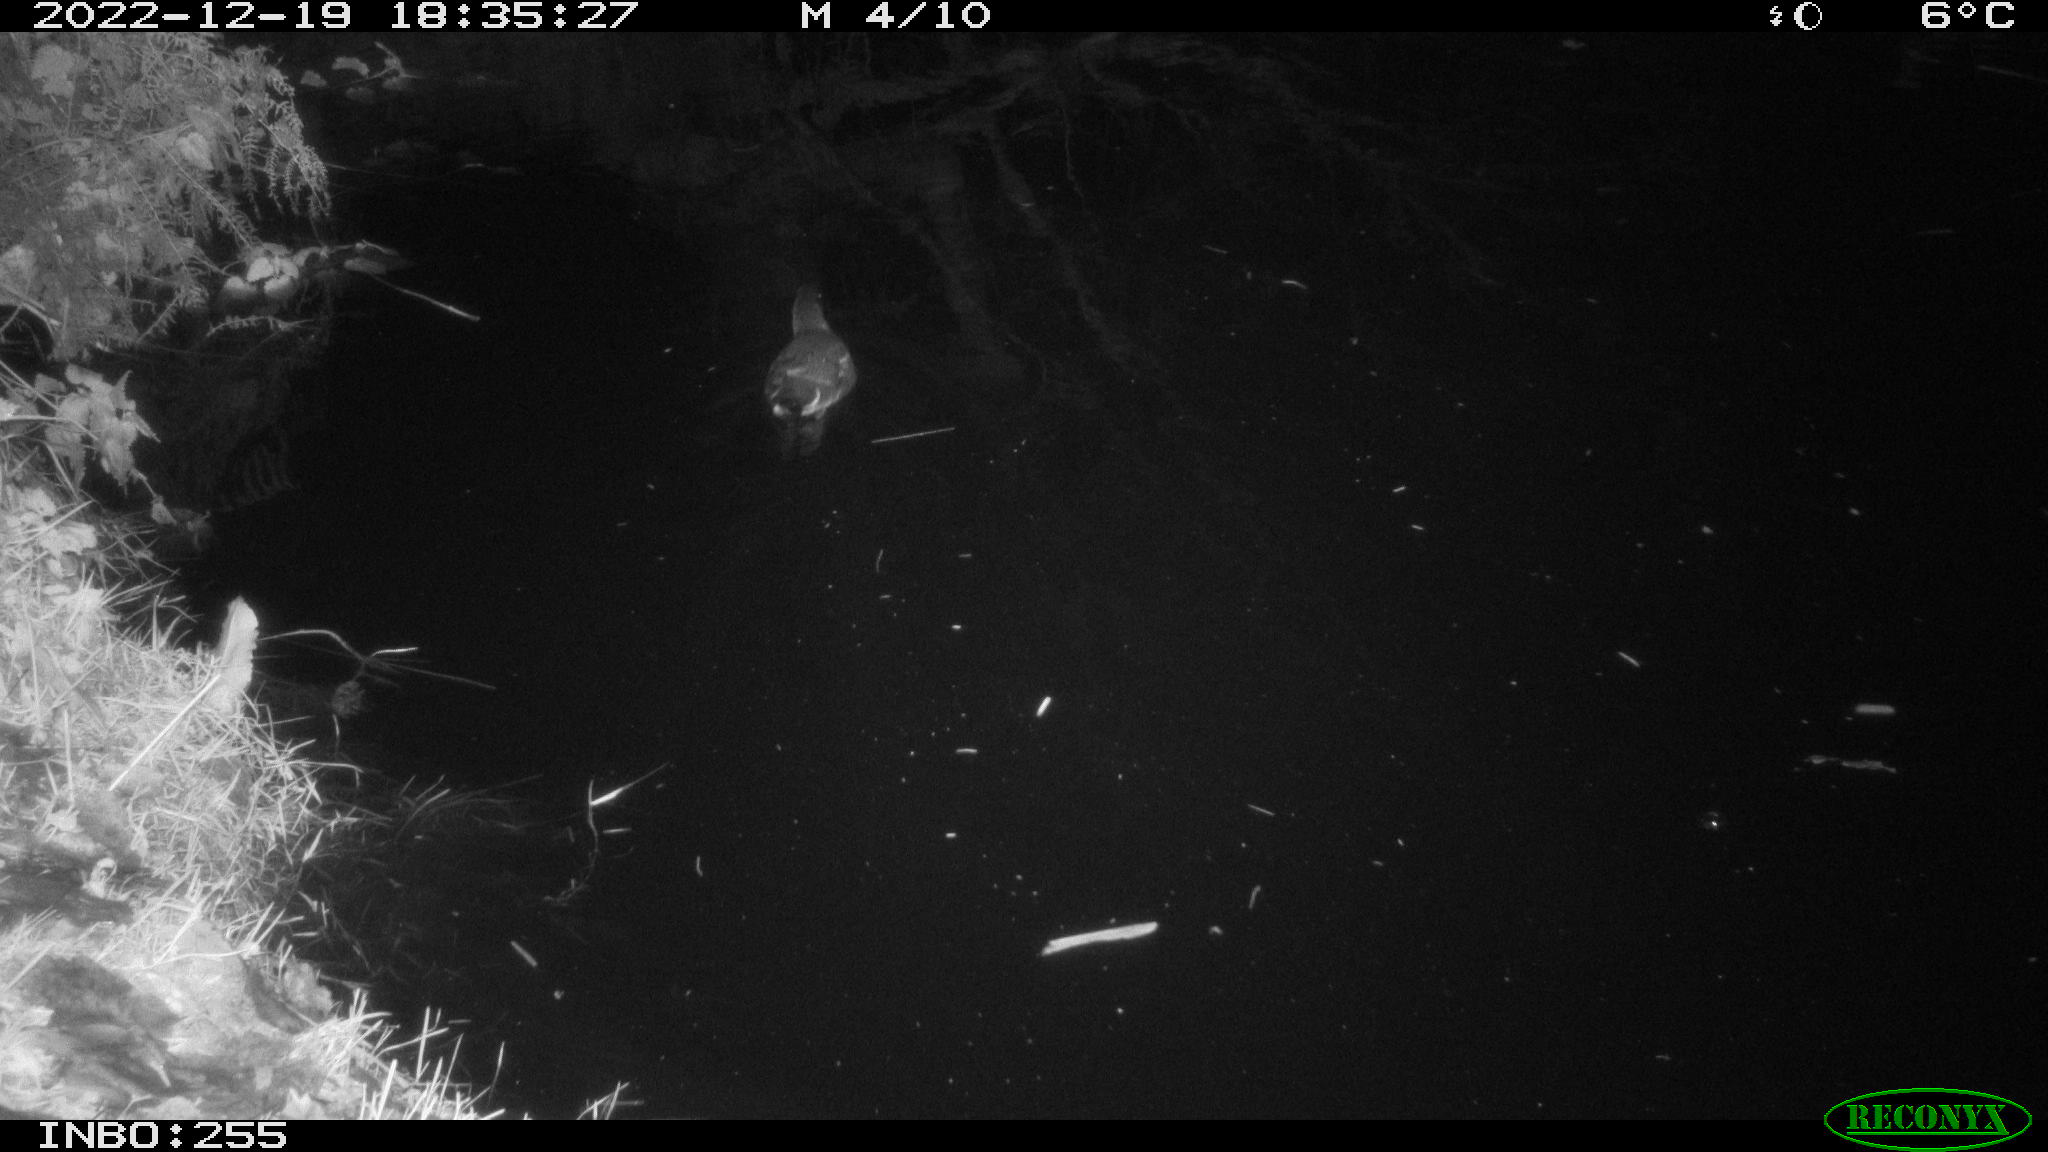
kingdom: Animalia
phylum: Chordata
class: Aves
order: Gruiformes
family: Rallidae
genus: Gallinula
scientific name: Gallinula chloropus
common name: Common moorhen
